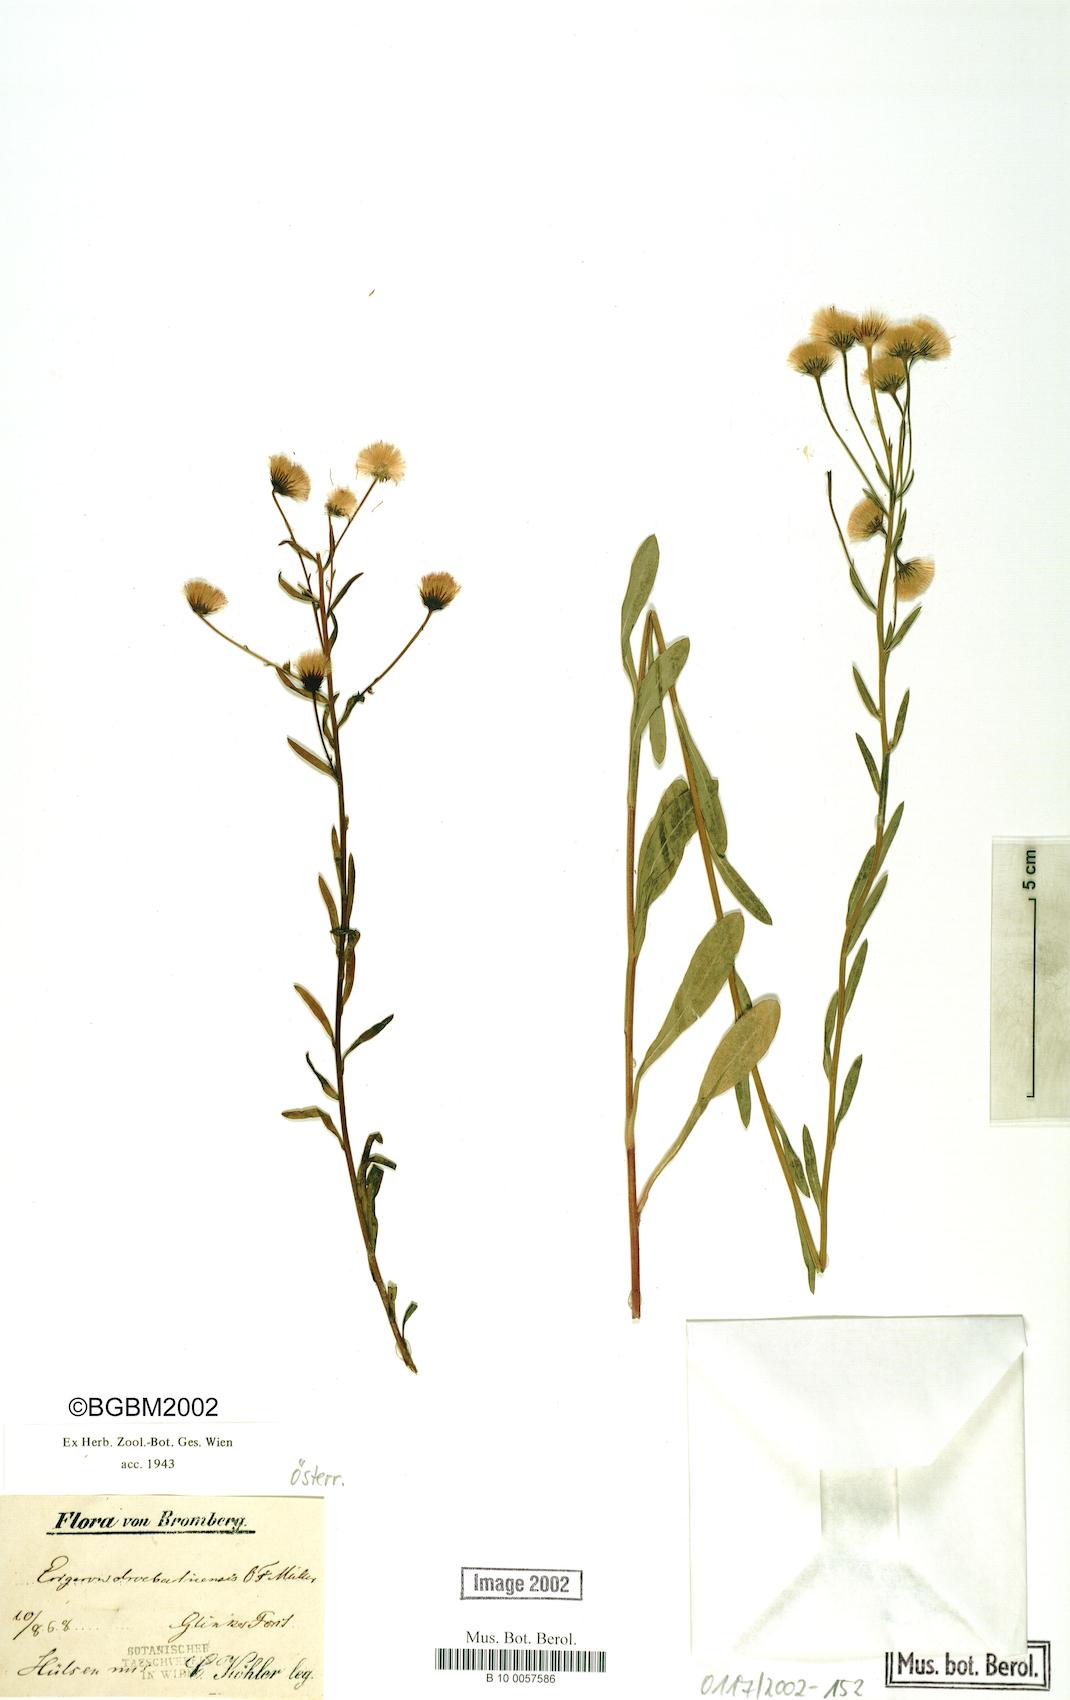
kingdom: Plantae
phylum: Tracheophyta
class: Magnoliopsida
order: Asterales
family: Asteraceae
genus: Erigeron
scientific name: Erigeron angulosus
